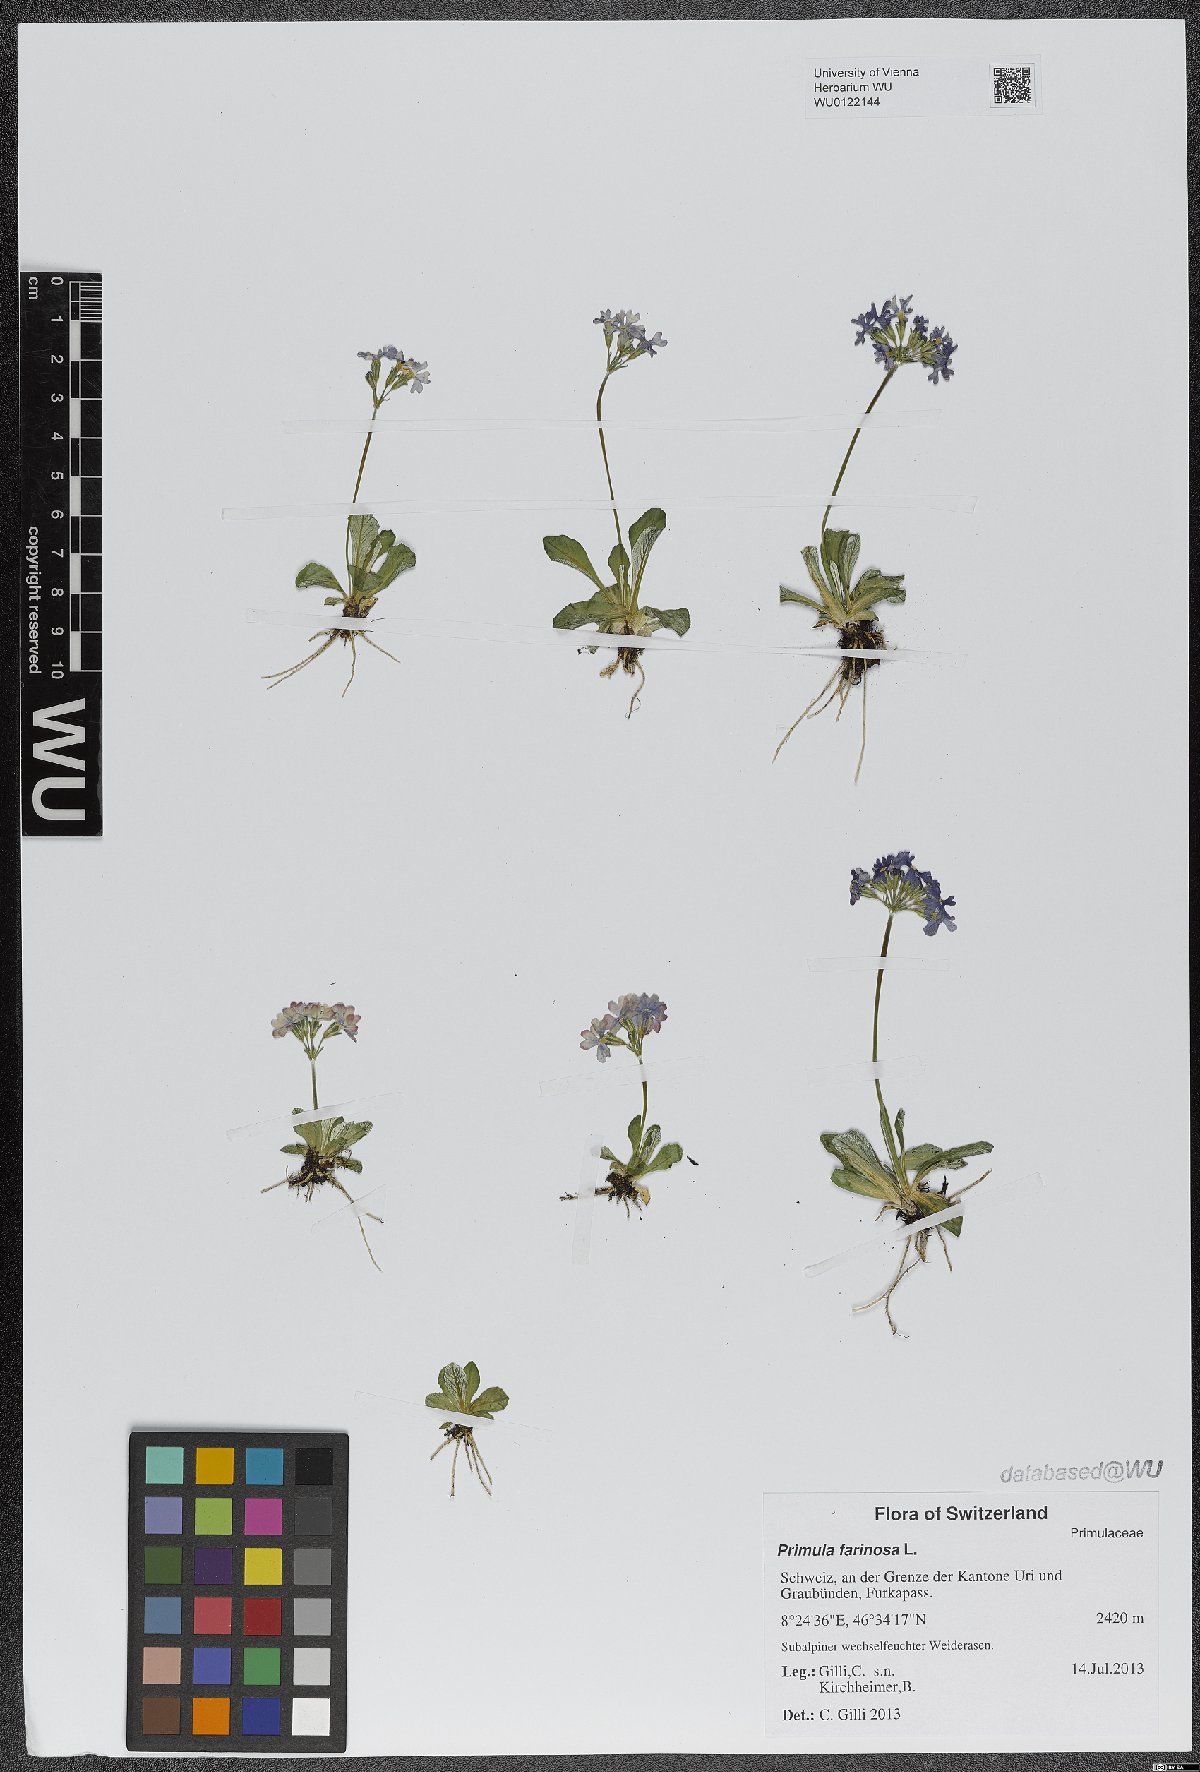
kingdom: Plantae
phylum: Tracheophyta
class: Magnoliopsida
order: Ericales
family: Primulaceae
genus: Primula
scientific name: Primula farinosa
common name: Bird's-eye primrose
